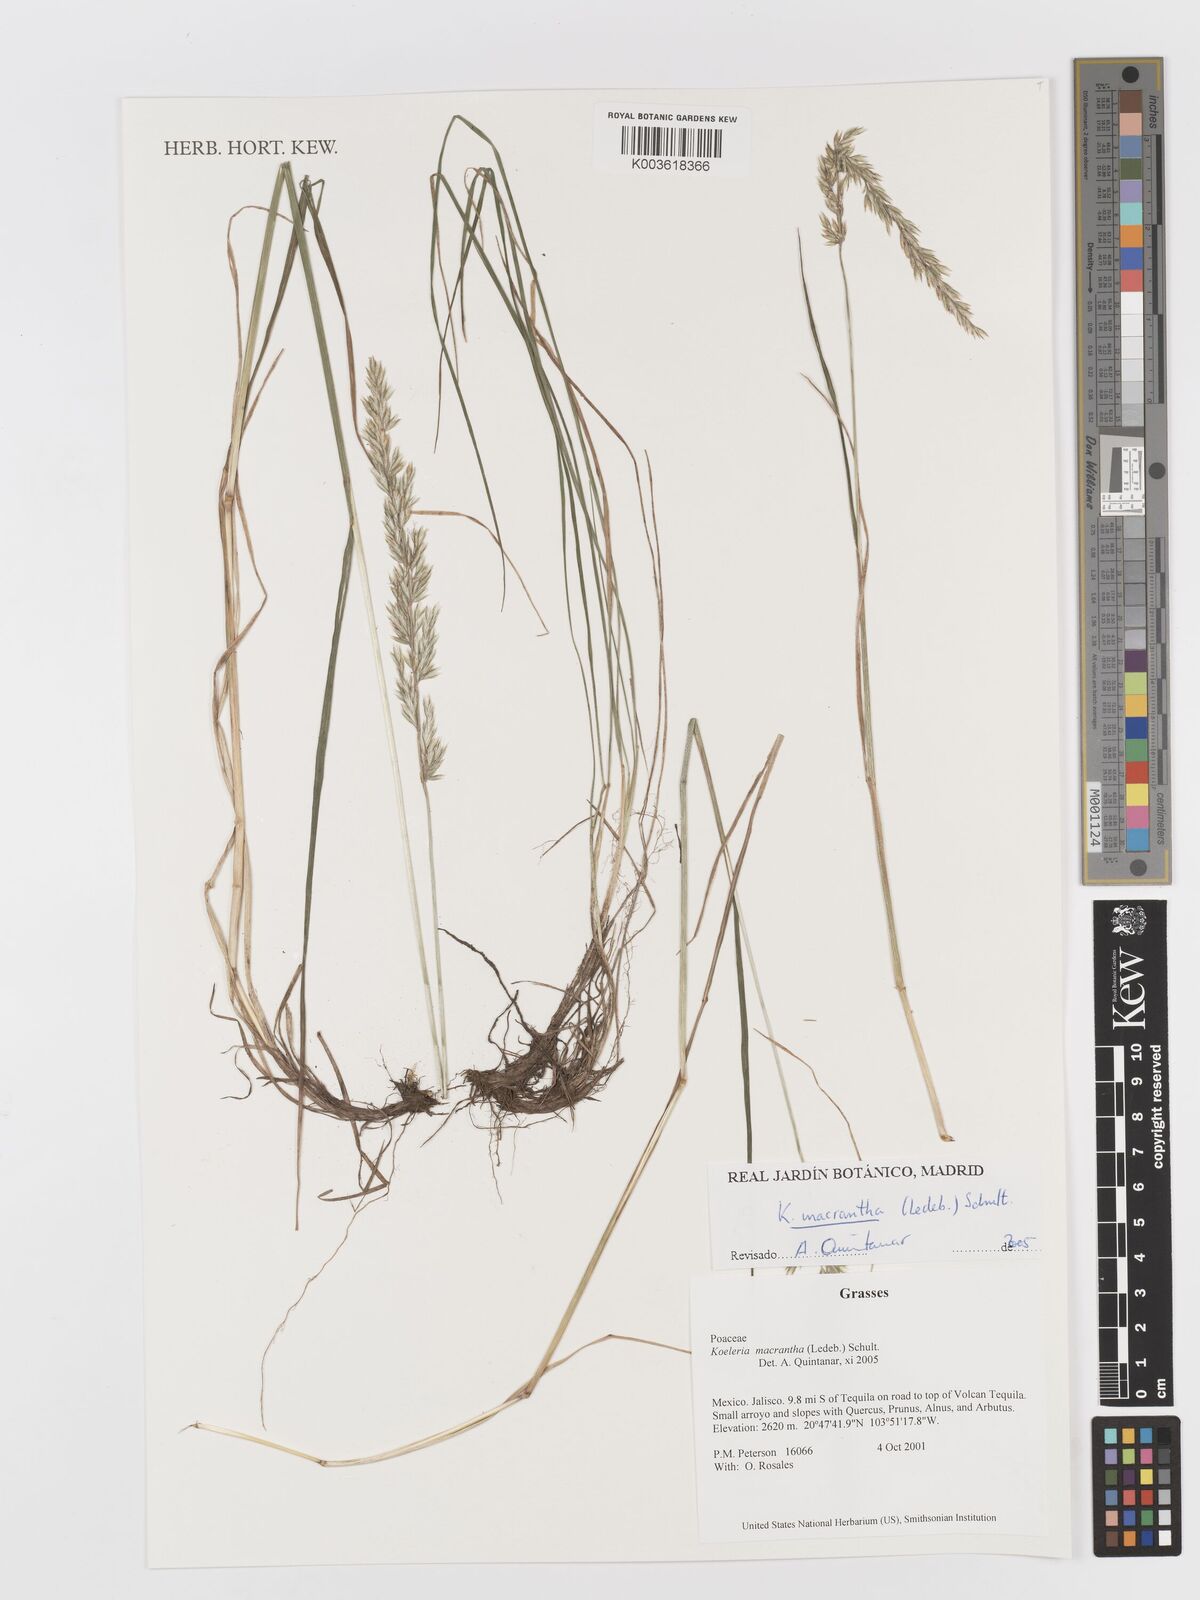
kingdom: Plantae
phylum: Tracheophyta
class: Liliopsida
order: Poales
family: Poaceae
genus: Koeleria
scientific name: Koeleria pyramidata
